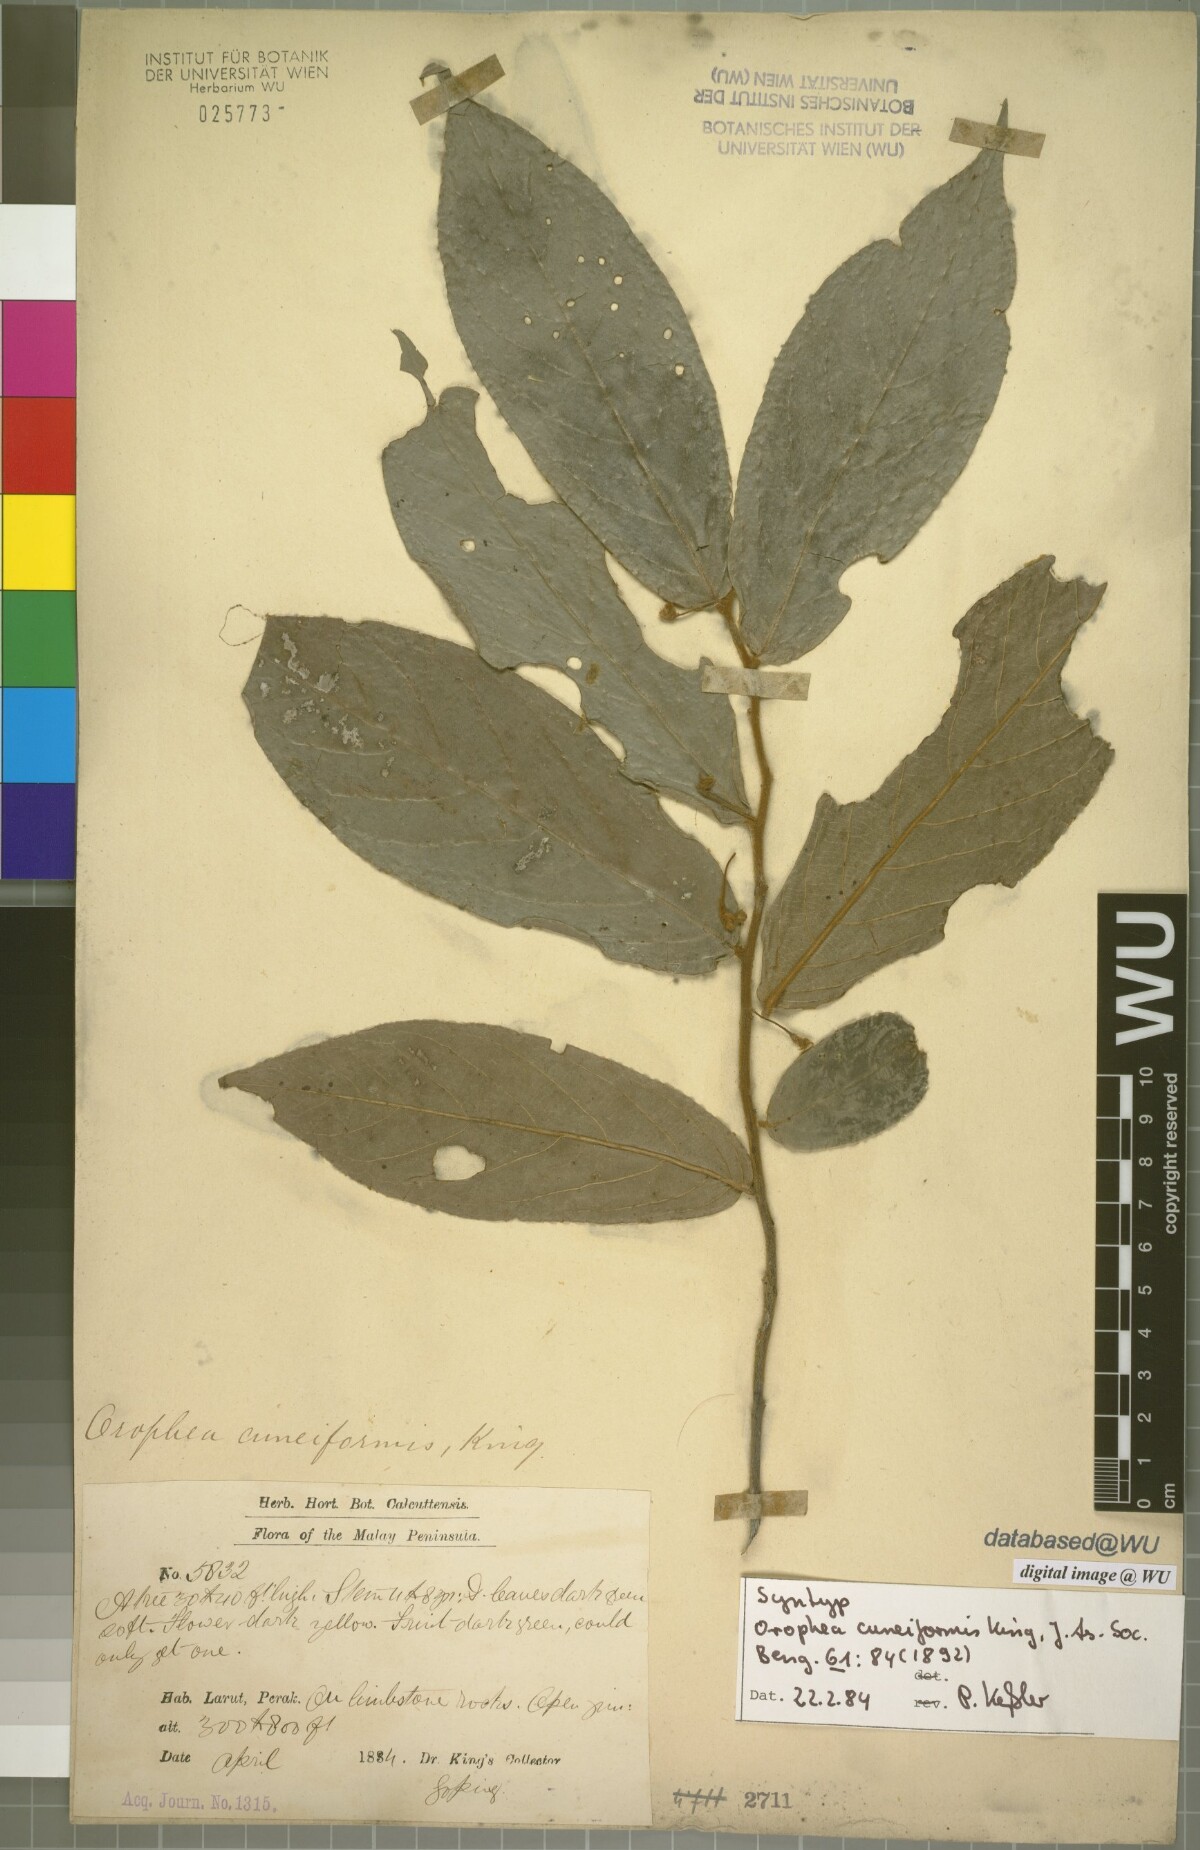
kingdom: Plantae
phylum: Tracheophyta
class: Magnoliopsida
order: Magnoliales
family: Annonaceae
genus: Orophea
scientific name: Orophea cuneiformis
